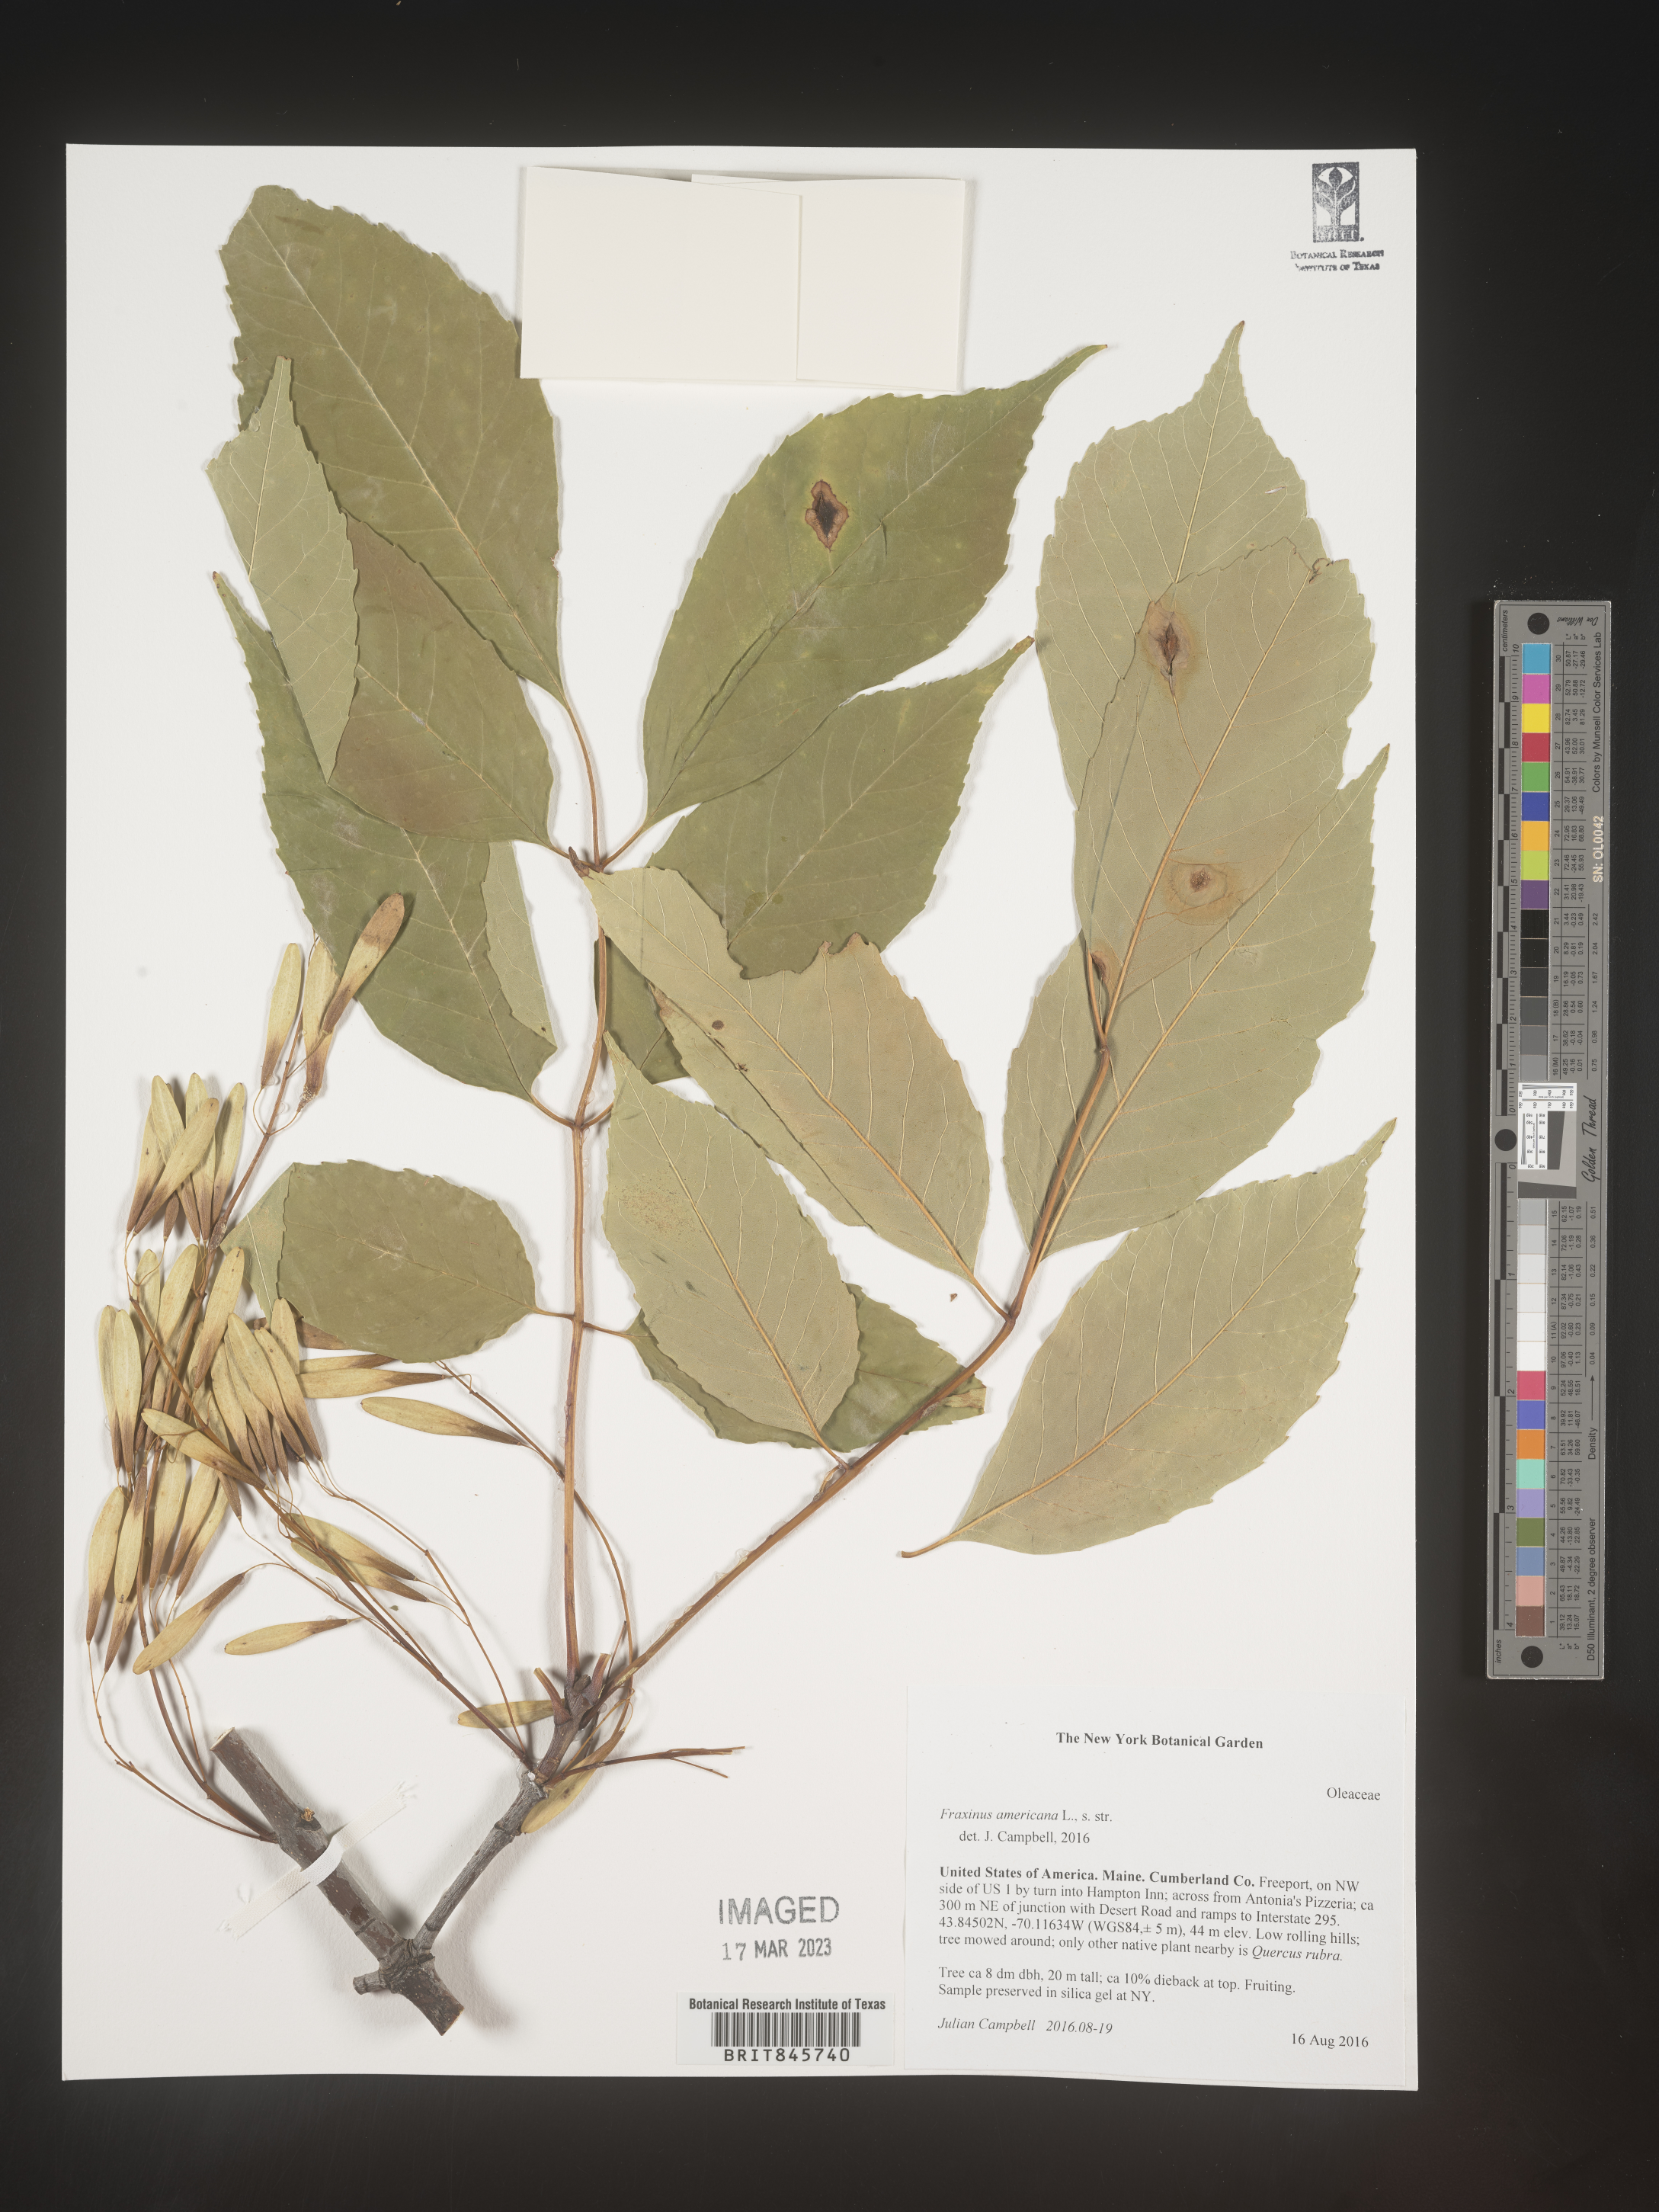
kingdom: Plantae
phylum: Tracheophyta
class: Magnoliopsida
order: Lamiales
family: Oleaceae
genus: Fraxinus
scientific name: Fraxinus americana
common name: White ash
